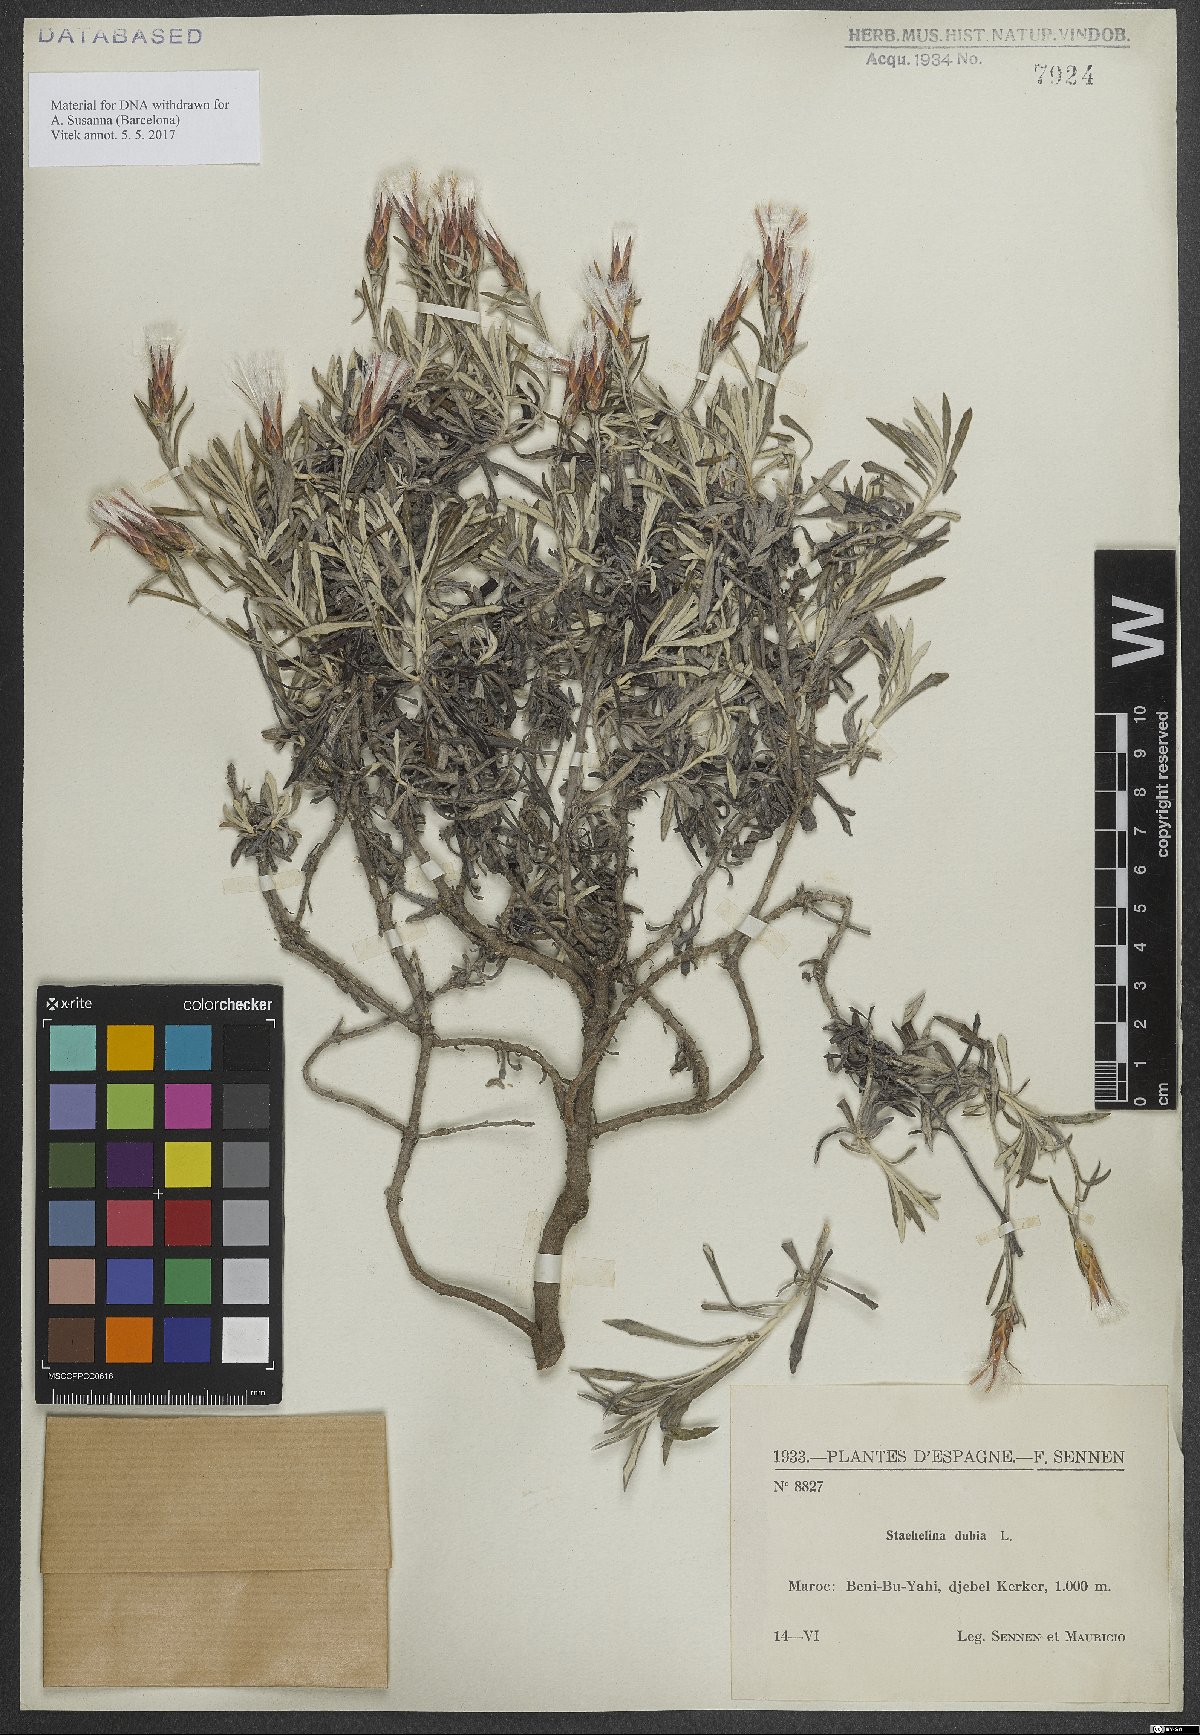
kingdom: Plantae
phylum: Tracheophyta
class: Magnoliopsida
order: Asterales
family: Asteraceae
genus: Staehelina
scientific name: Staehelina dubia
